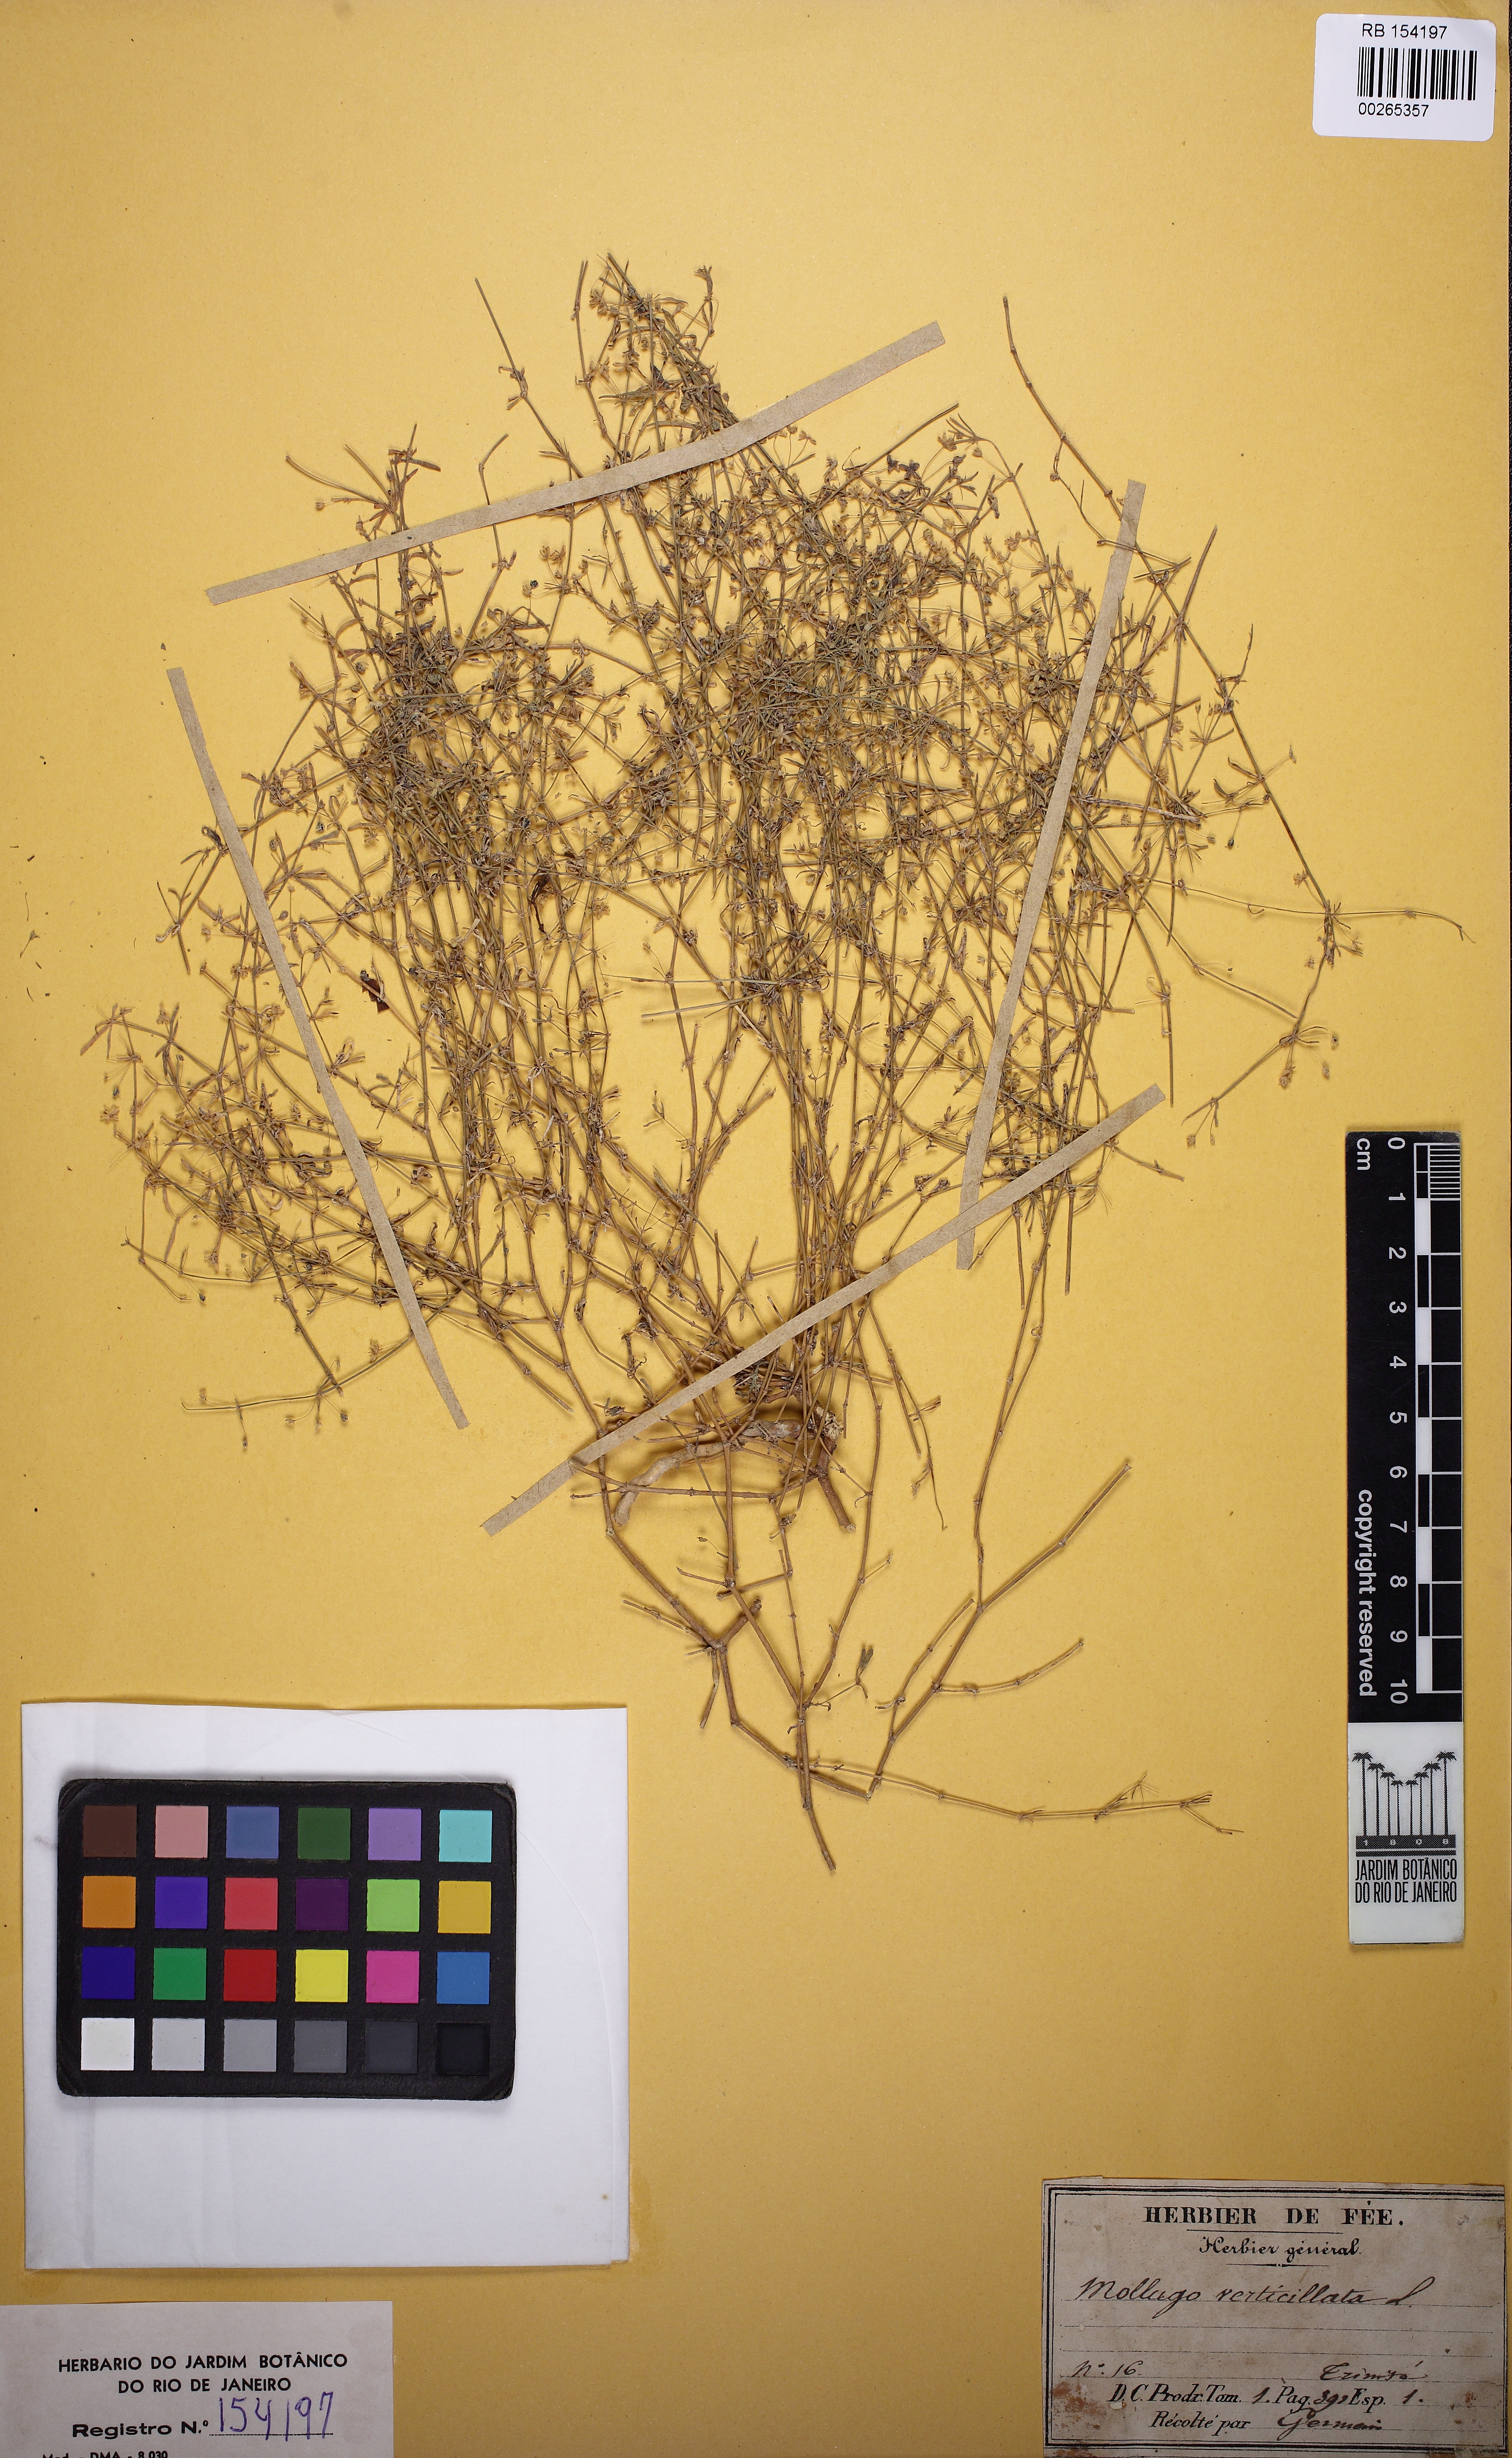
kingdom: Plantae
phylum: Tracheophyta
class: Magnoliopsida
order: Caryophyllales
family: Molluginaceae
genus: Mollugo
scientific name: Mollugo verticillata
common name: Green carpetweed
